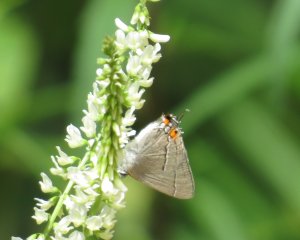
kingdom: Animalia
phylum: Arthropoda
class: Insecta
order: Lepidoptera
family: Lycaenidae
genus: Strymon
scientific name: Strymon melinus
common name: Gray Hairstreak
